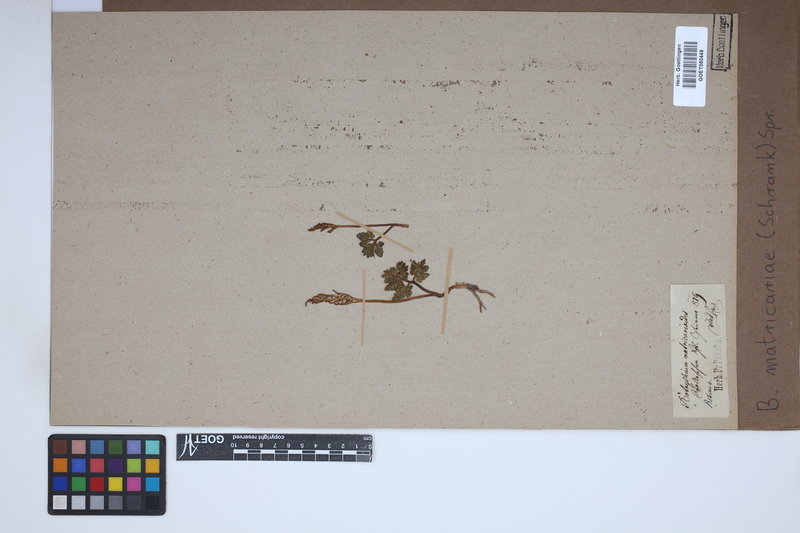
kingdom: Plantae
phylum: Tracheophyta
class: Polypodiopsida
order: Ophioglossales
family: Ophioglossaceae
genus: Sceptridium
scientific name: Sceptridium multifidum
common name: Leathery grape fern
